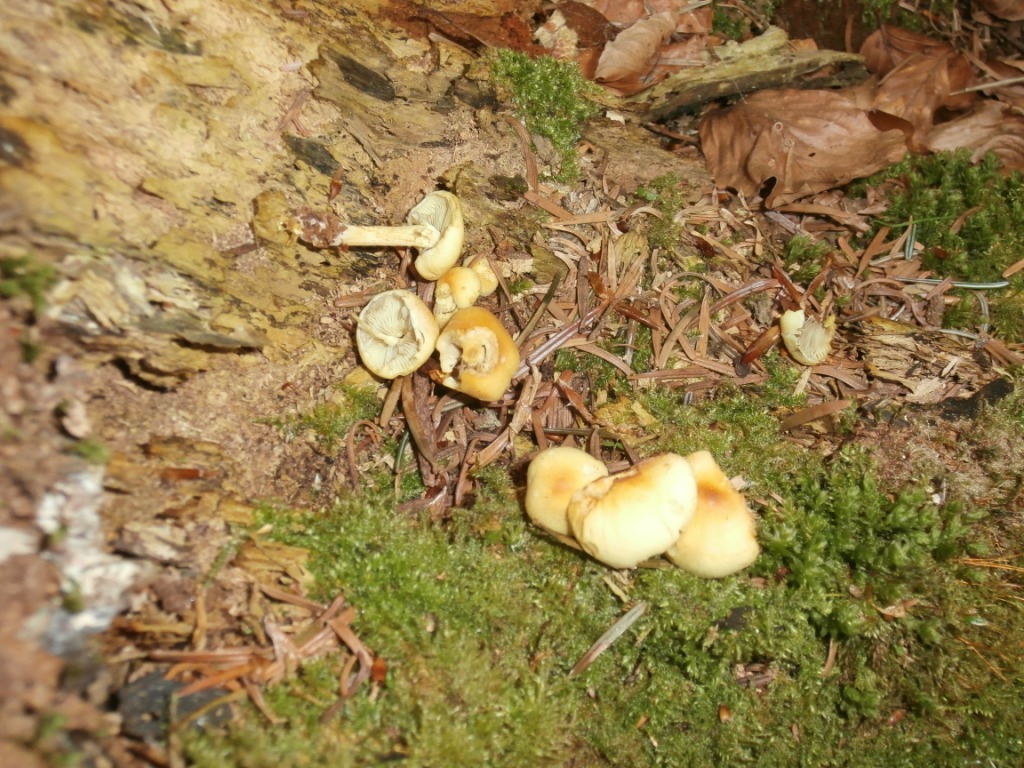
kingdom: Fungi
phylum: Basidiomycota
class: Agaricomycetes
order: Agaricales
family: Strophariaceae
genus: Hypholoma
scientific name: Hypholoma fasciculare
